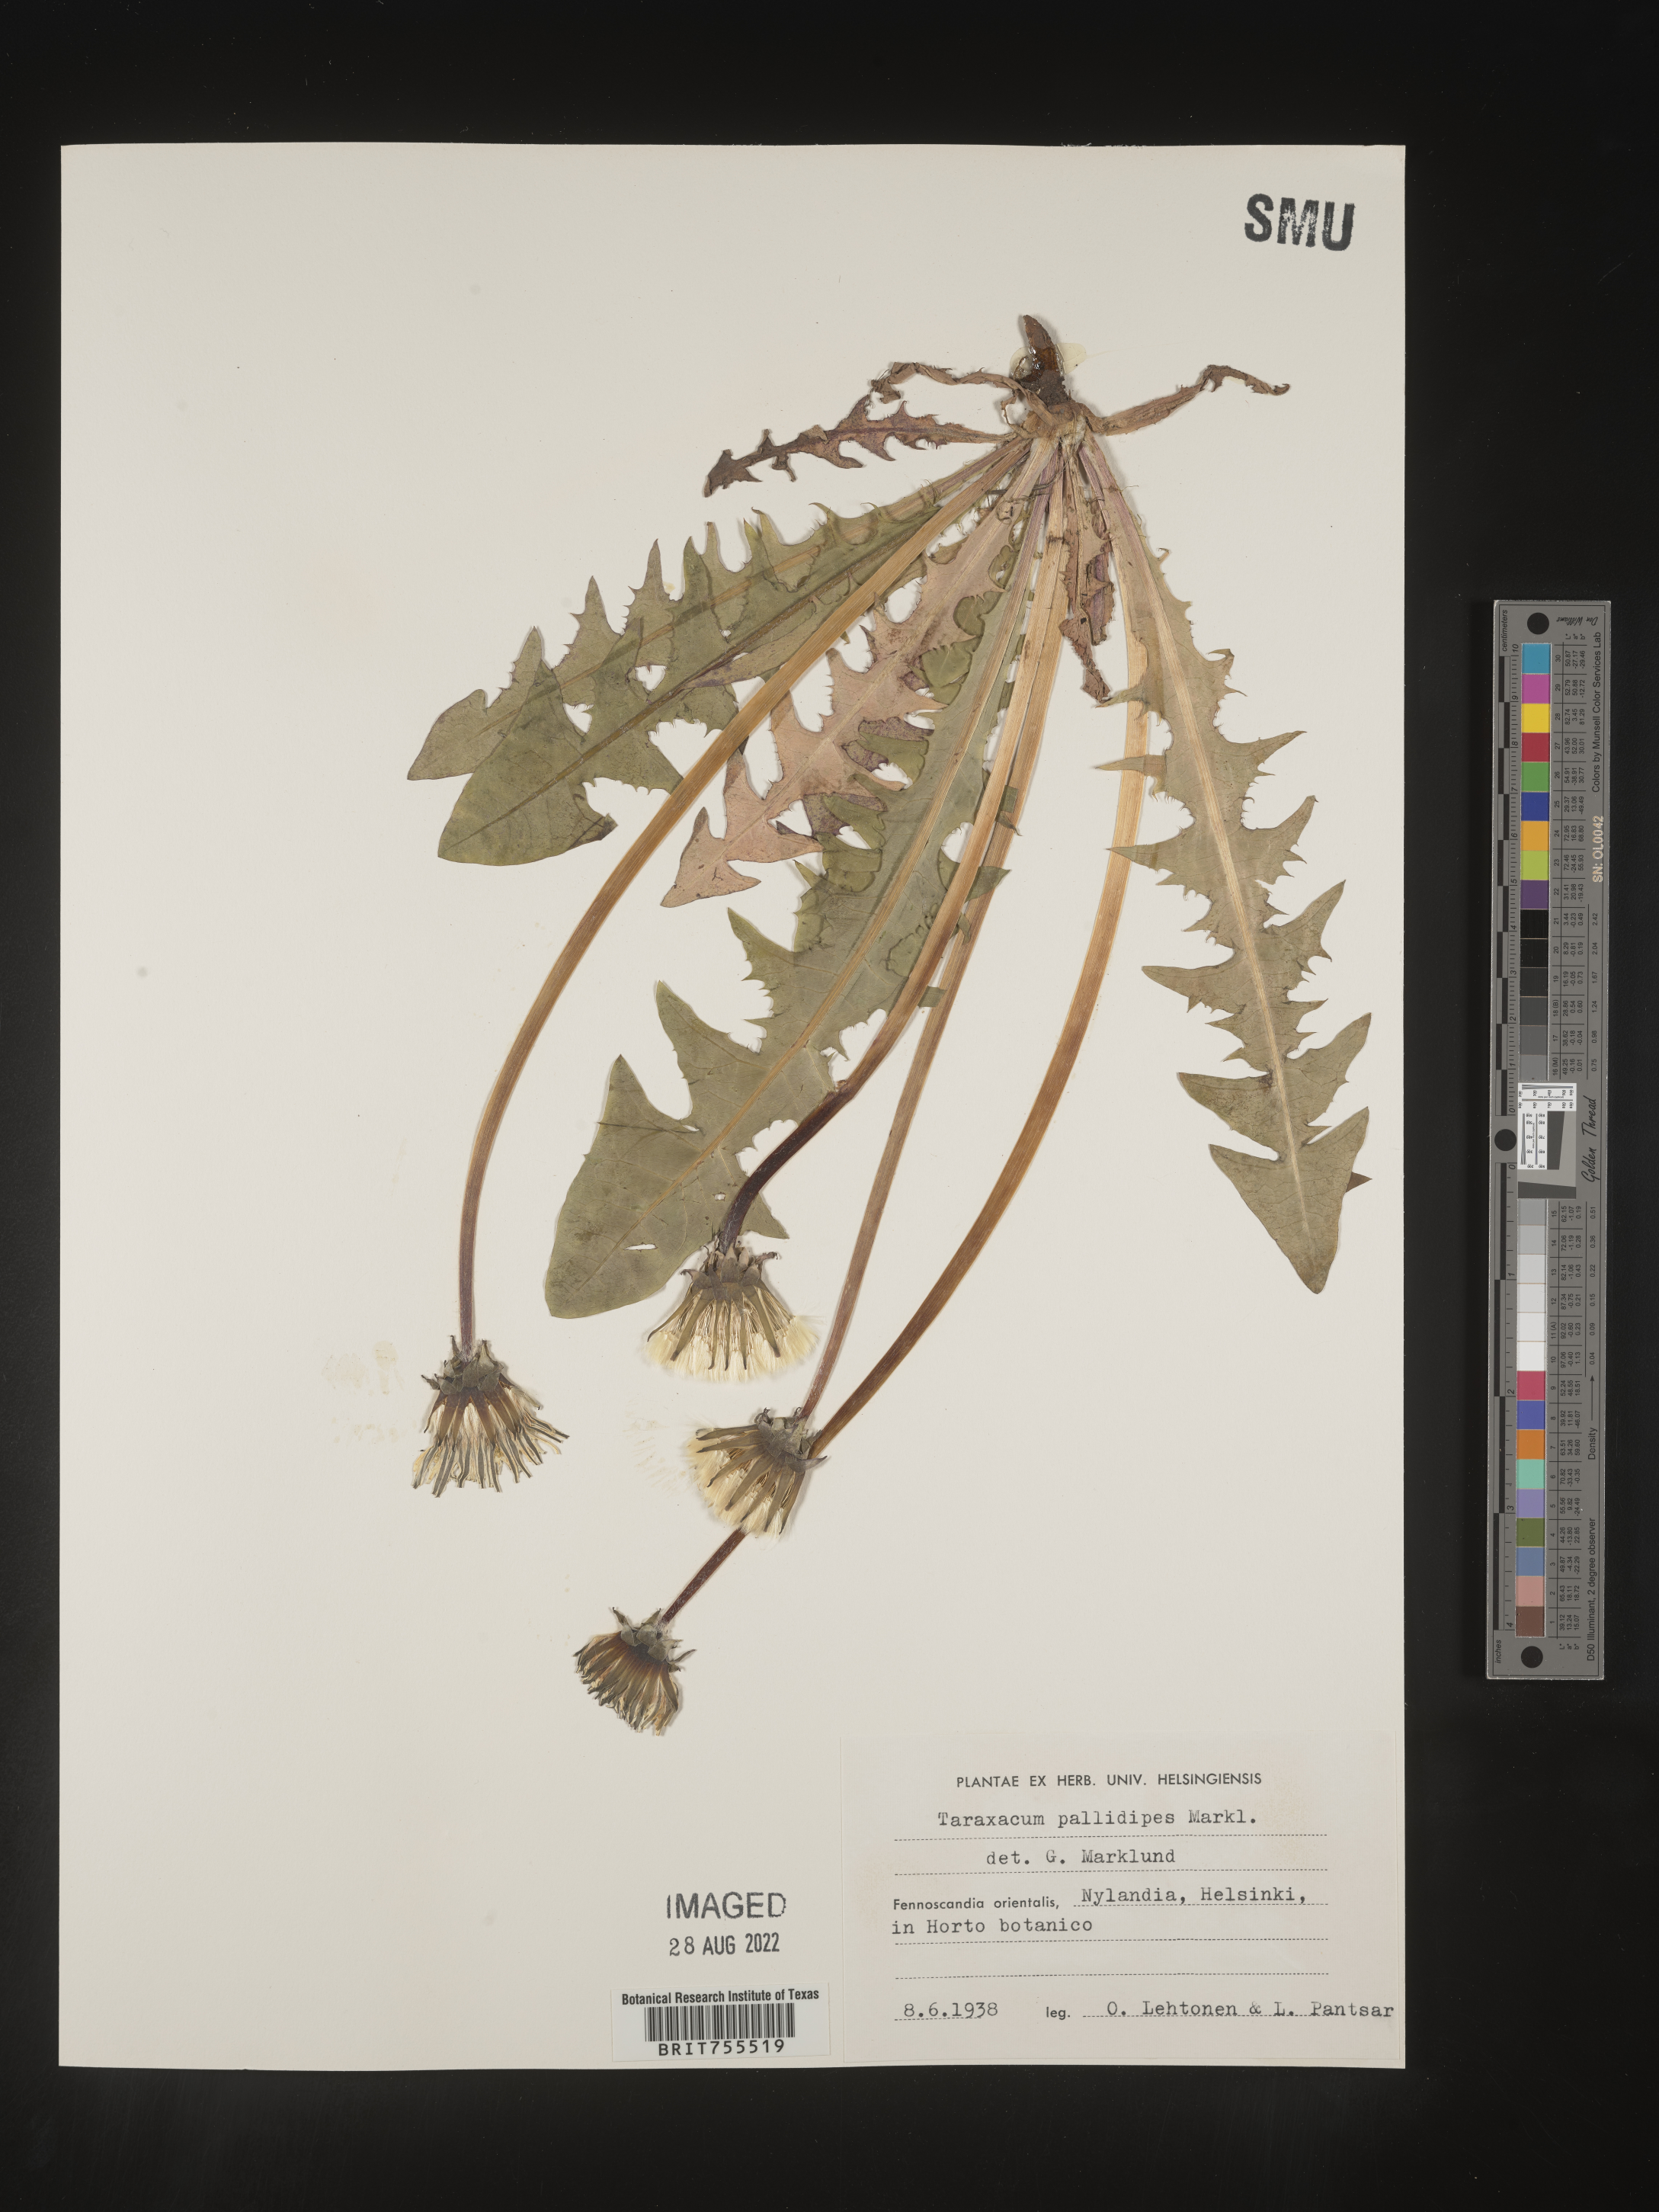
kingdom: Plantae
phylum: Tracheophyta
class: Magnoliopsida
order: Asterales
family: Asteraceae
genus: Taraxacum
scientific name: Taraxacum
